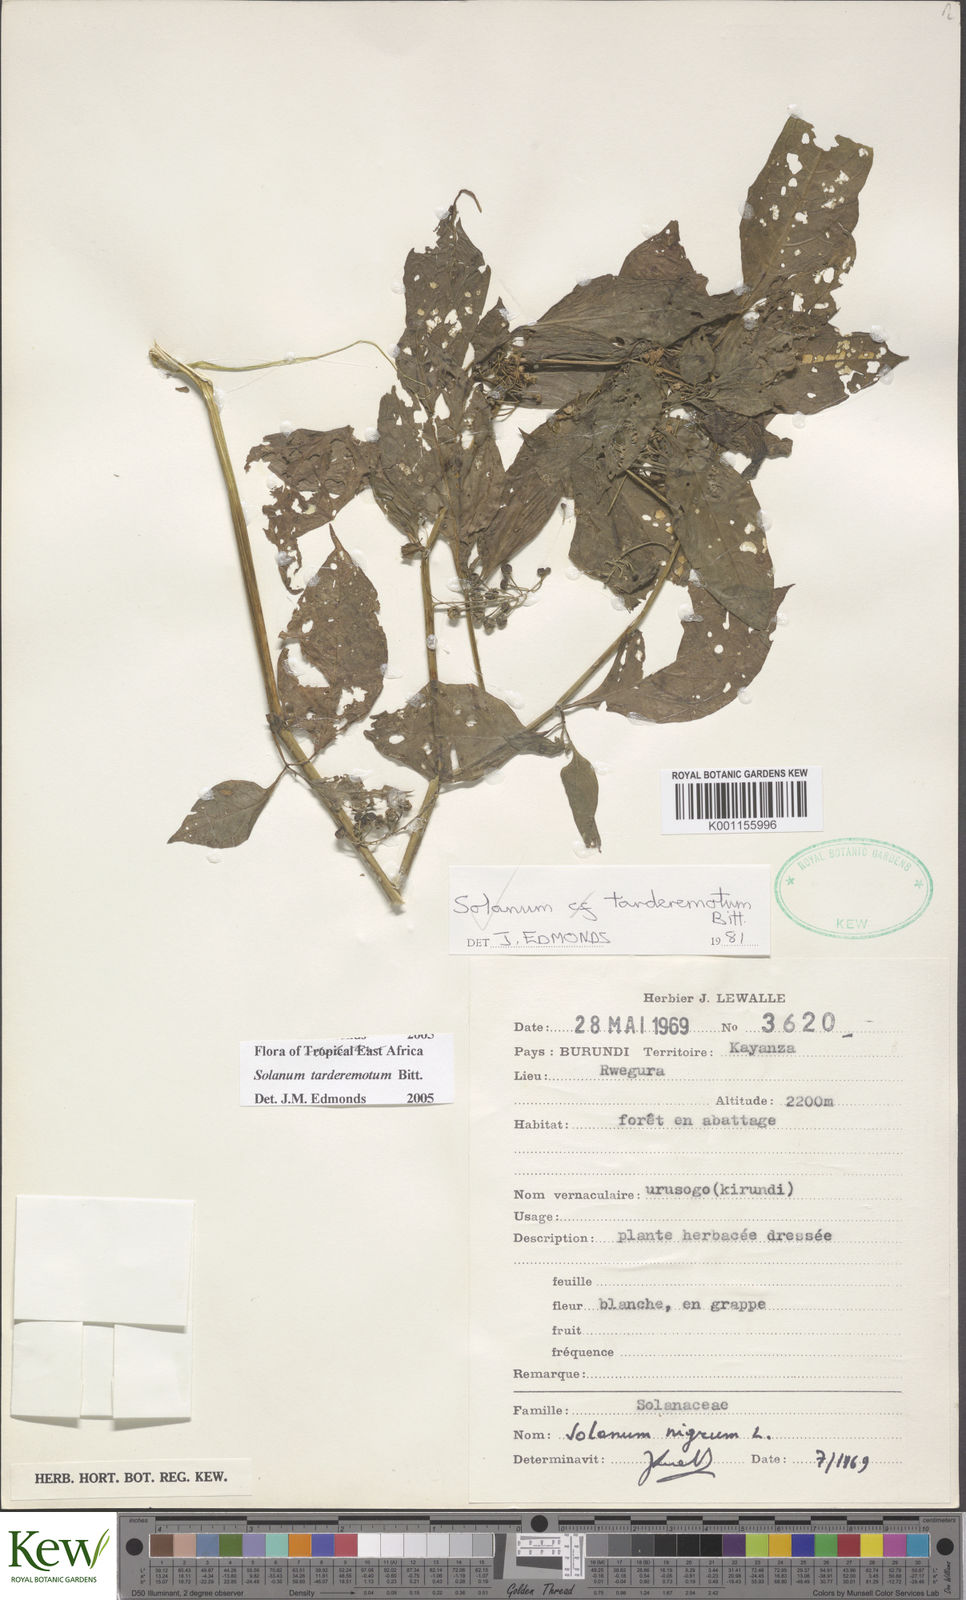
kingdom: Plantae
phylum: Tracheophyta
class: Magnoliopsida
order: Solanales
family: Solanaceae
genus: Solanum
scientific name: Solanum tarderemotum
